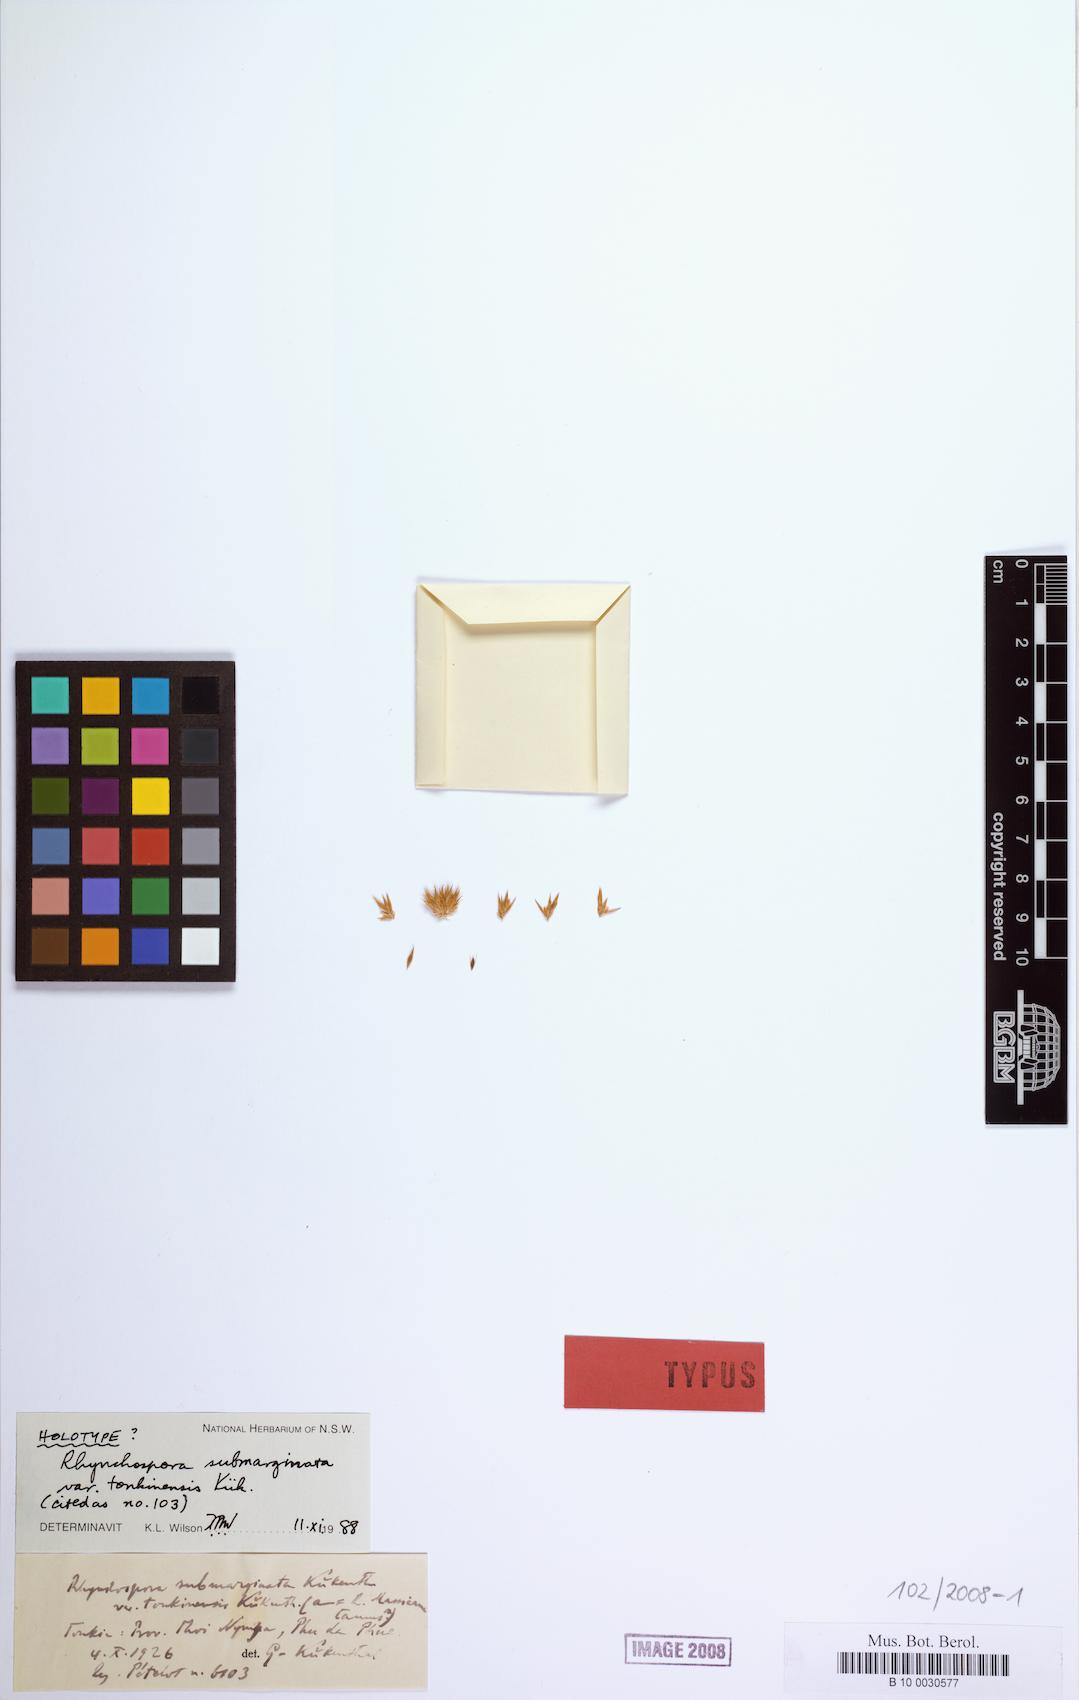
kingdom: Plantae
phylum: Tracheophyta
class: Liliopsida
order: Poales
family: Cyperaceae
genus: Rhynchospora
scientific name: Rhynchospora submarginata
